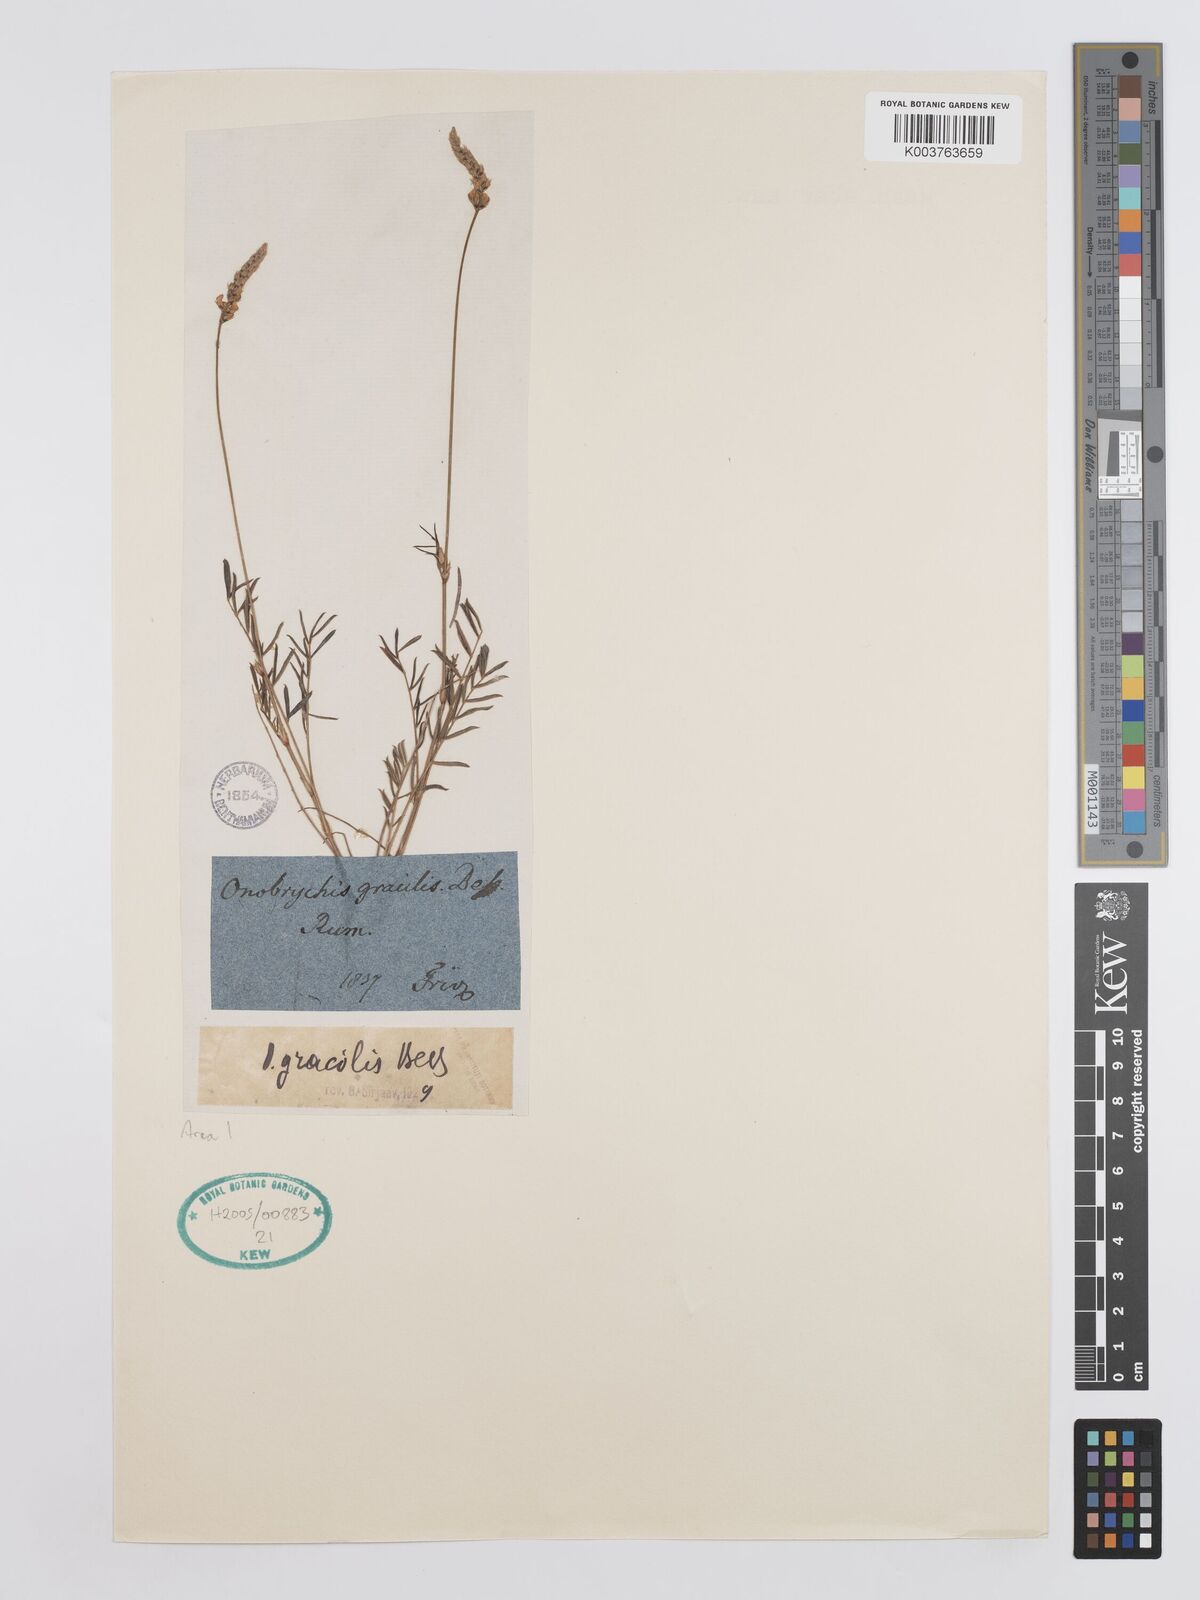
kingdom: Plantae
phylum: Tracheophyta
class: Magnoliopsida
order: Fabales
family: Fabaceae
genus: Onobrychis
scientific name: Onobrychis gracilis
